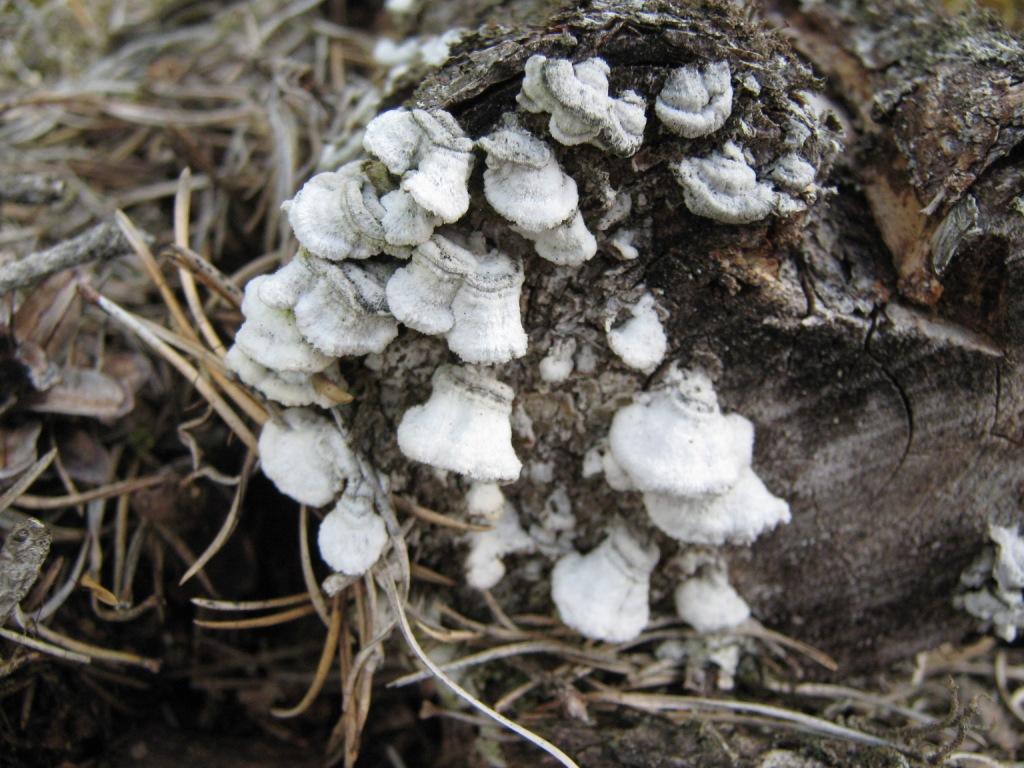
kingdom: Fungi
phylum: Basidiomycota
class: Agaricomycetes
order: Hymenochaetales
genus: Trichaptum
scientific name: Trichaptum abietinum
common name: almindelig violporesvamp
